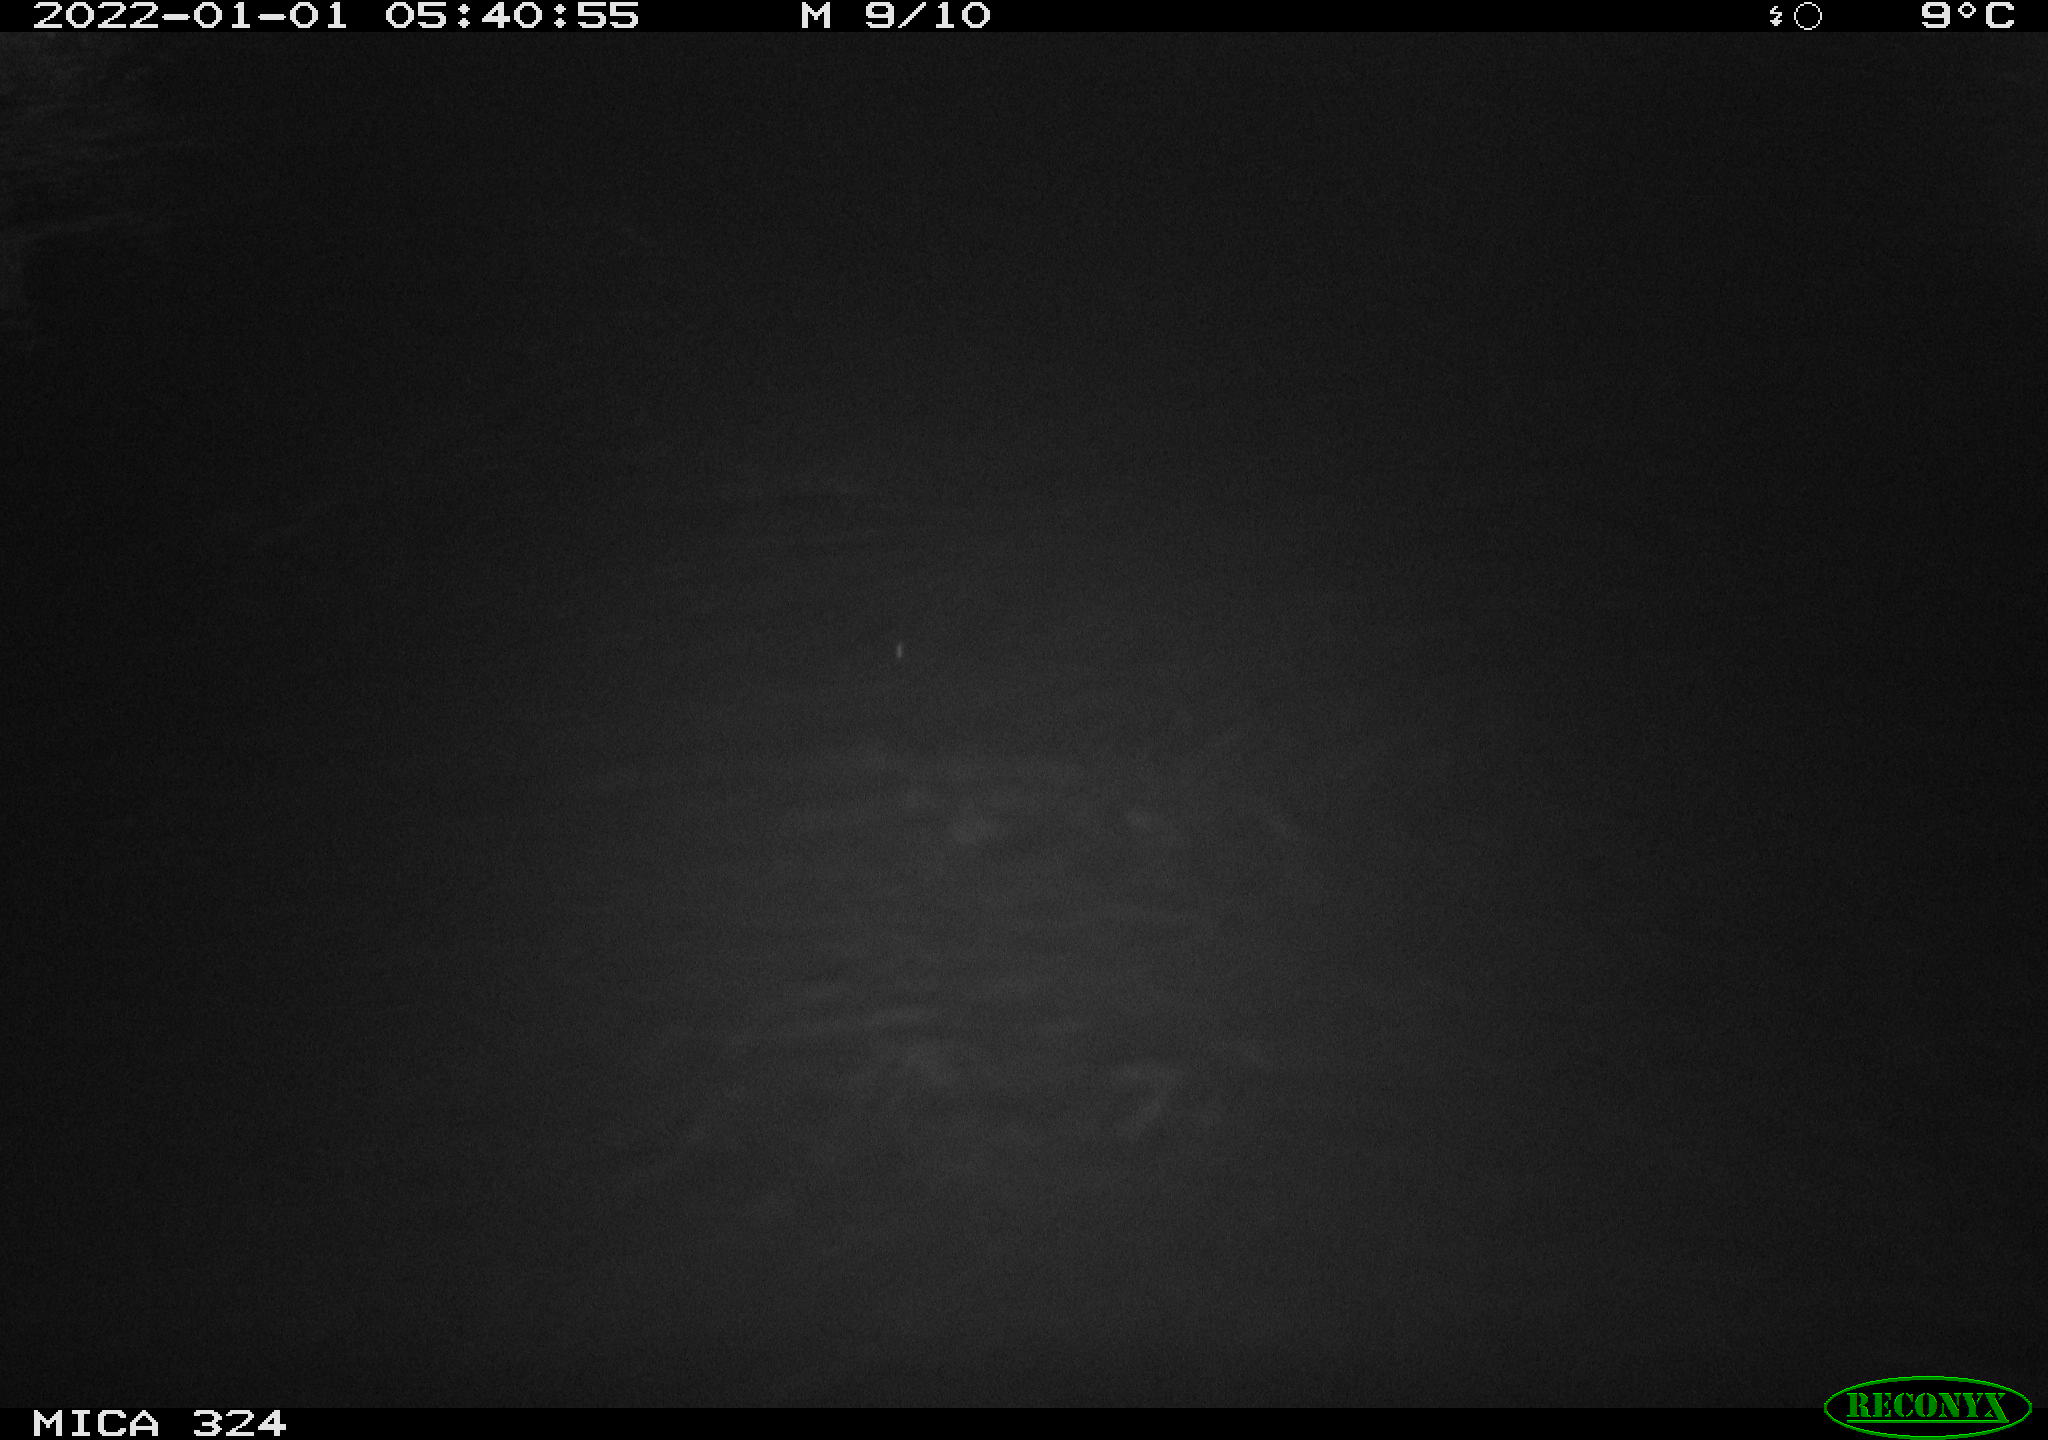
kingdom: Animalia
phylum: Chordata
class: Mammalia
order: Rodentia
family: Cricetidae
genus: Ondatra
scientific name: Ondatra zibethicus
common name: Muskrat
